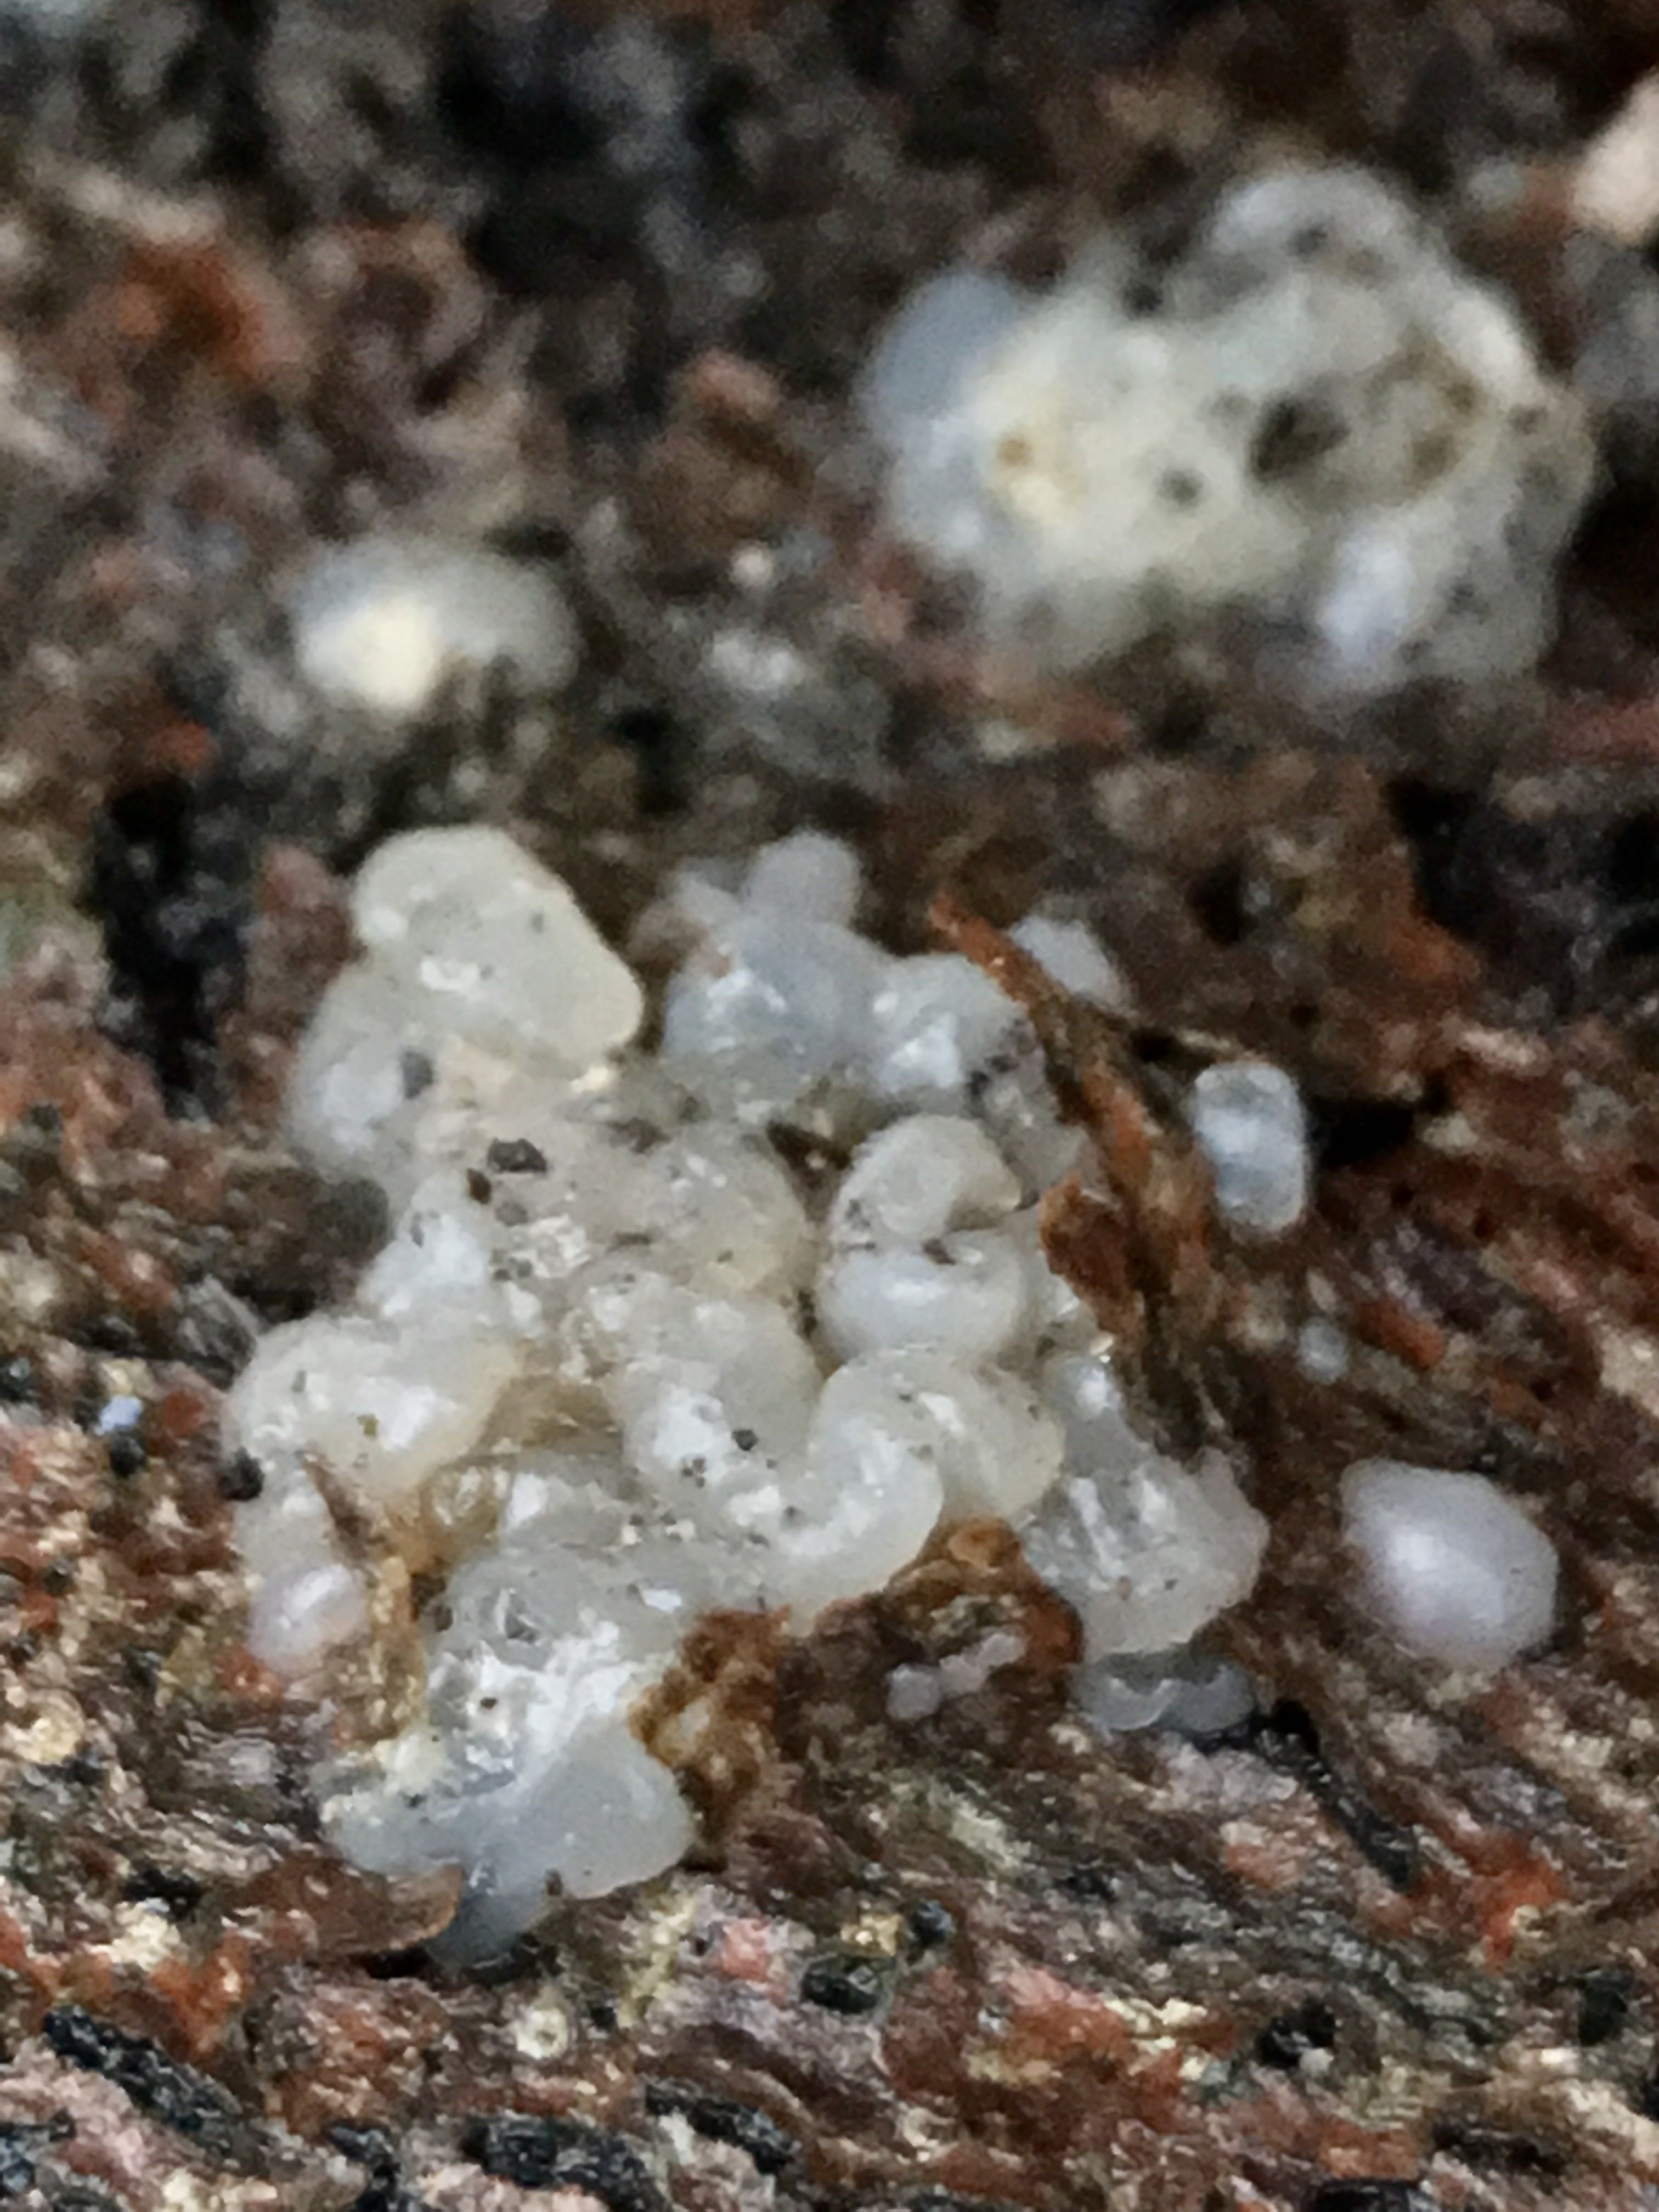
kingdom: Fungi
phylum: Basidiomycota
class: Agaricomycetes
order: Auriculariales
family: Hyaloriaceae
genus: Myxarium
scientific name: Myxarium nucleatum
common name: klar bævretop
